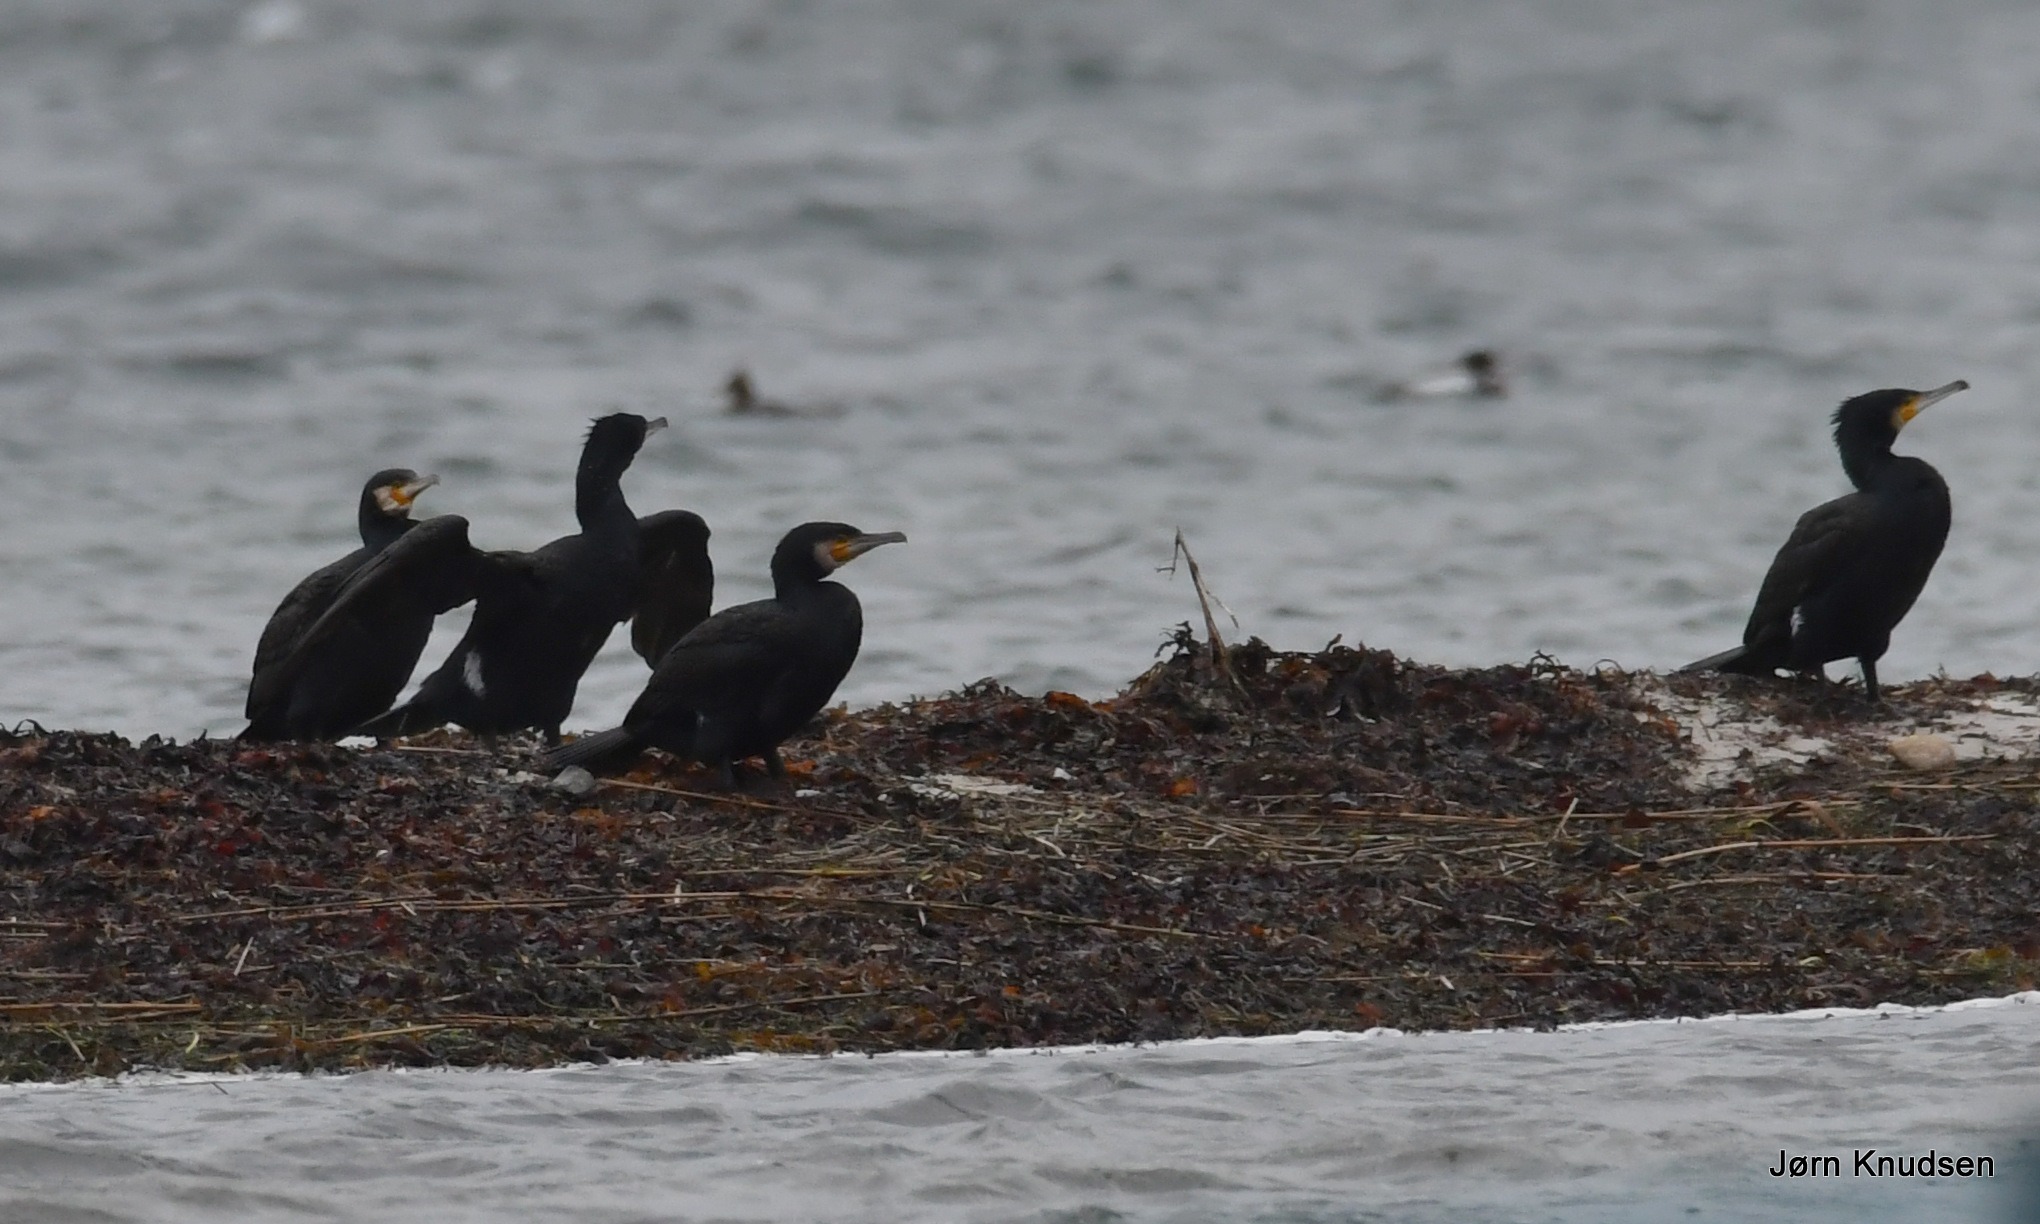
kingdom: Animalia
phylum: Chordata
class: Aves
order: Suliformes
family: Phalacrocoracidae
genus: Phalacrocorax
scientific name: Phalacrocorax carbo
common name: Skarv
